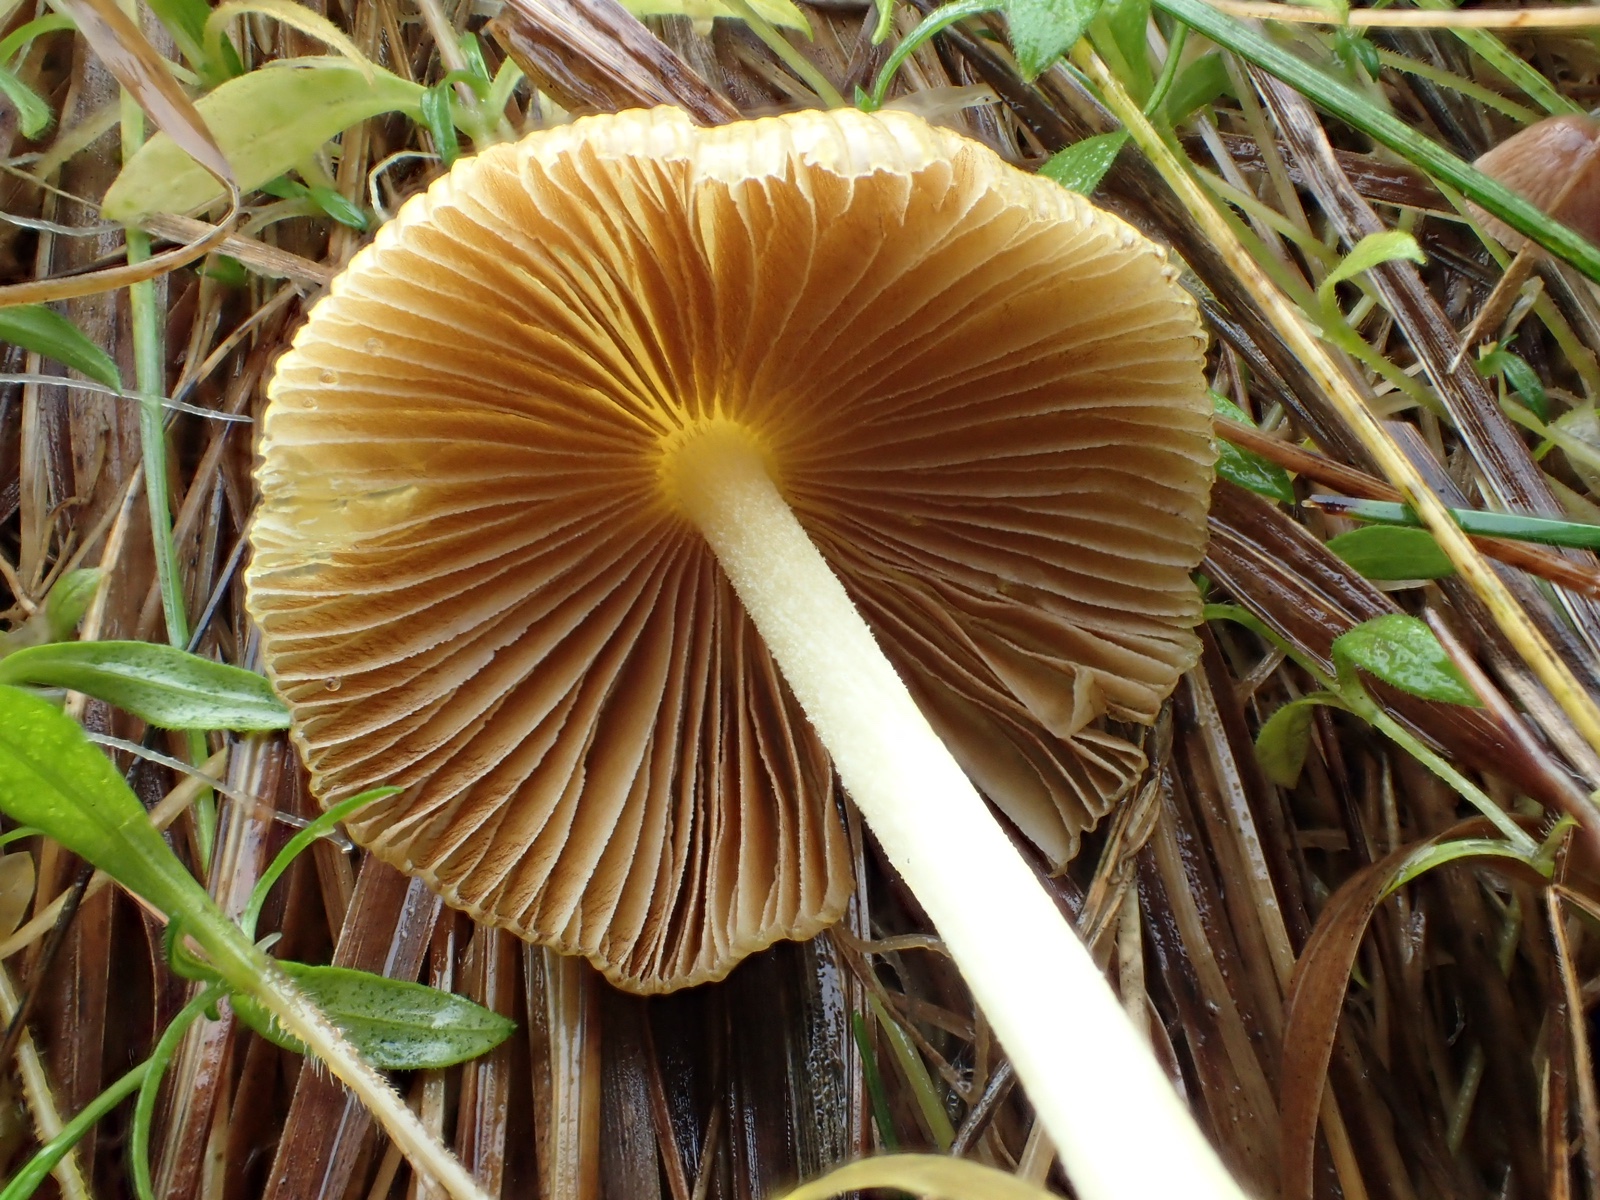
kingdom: Fungi
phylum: Basidiomycota
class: Agaricomycetes
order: Agaricales
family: Bolbitiaceae
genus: Bolbitius
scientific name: Bolbitius titubans
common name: almindelig gulhat
